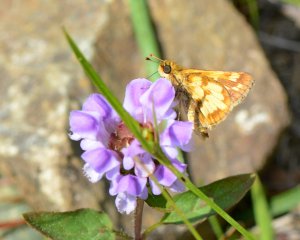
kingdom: Animalia
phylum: Arthropoda
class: Insecta
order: Lepidoptera
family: Hesperiidae
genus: Polites
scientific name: Polites coras
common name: Peck's Skipper
